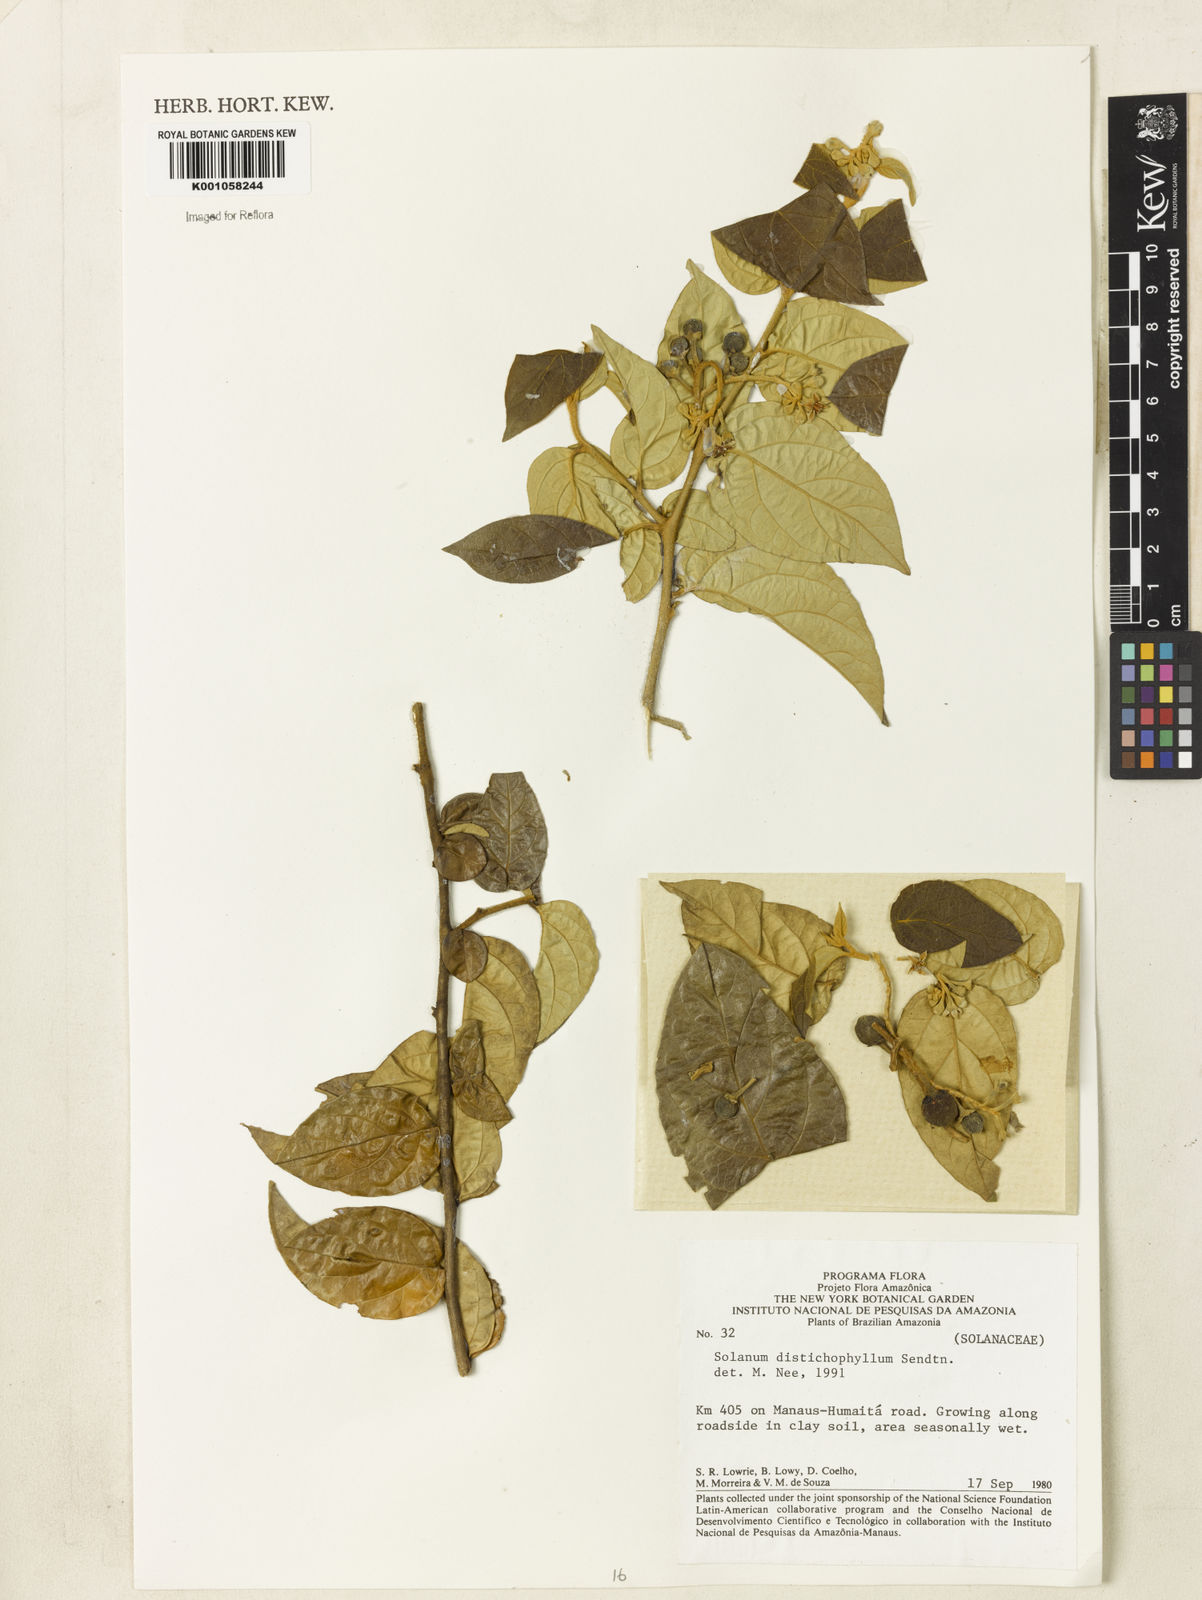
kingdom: Plantae
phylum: Tracheophyta
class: Magnoliopsida
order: Solanales
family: Solanaceae
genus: Solanum
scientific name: Solanum distichophyllum
